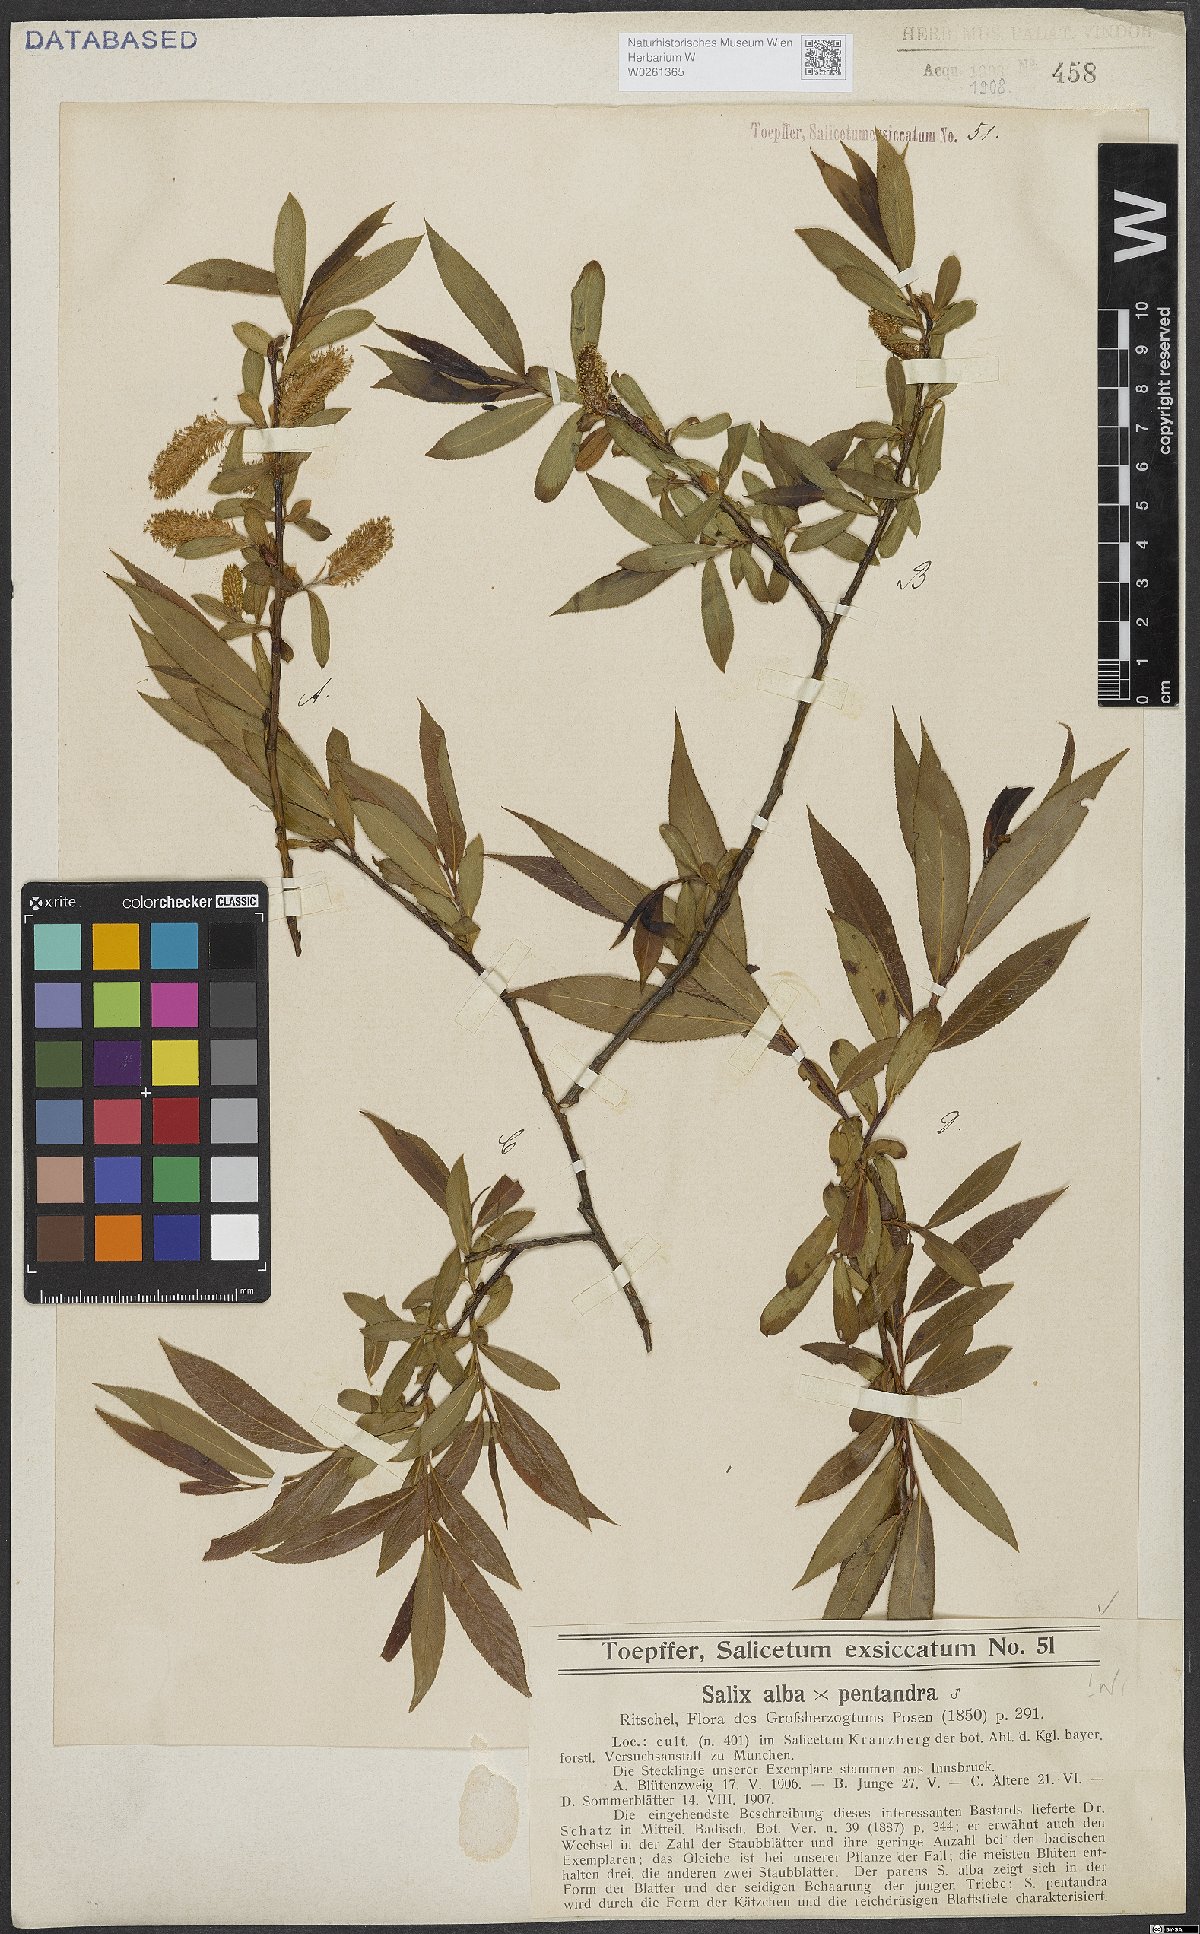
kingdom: Plantae
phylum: Tracheophyta
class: Magnoliopsida
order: Malpighiales
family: Salicaceae
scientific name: Salicaceae
